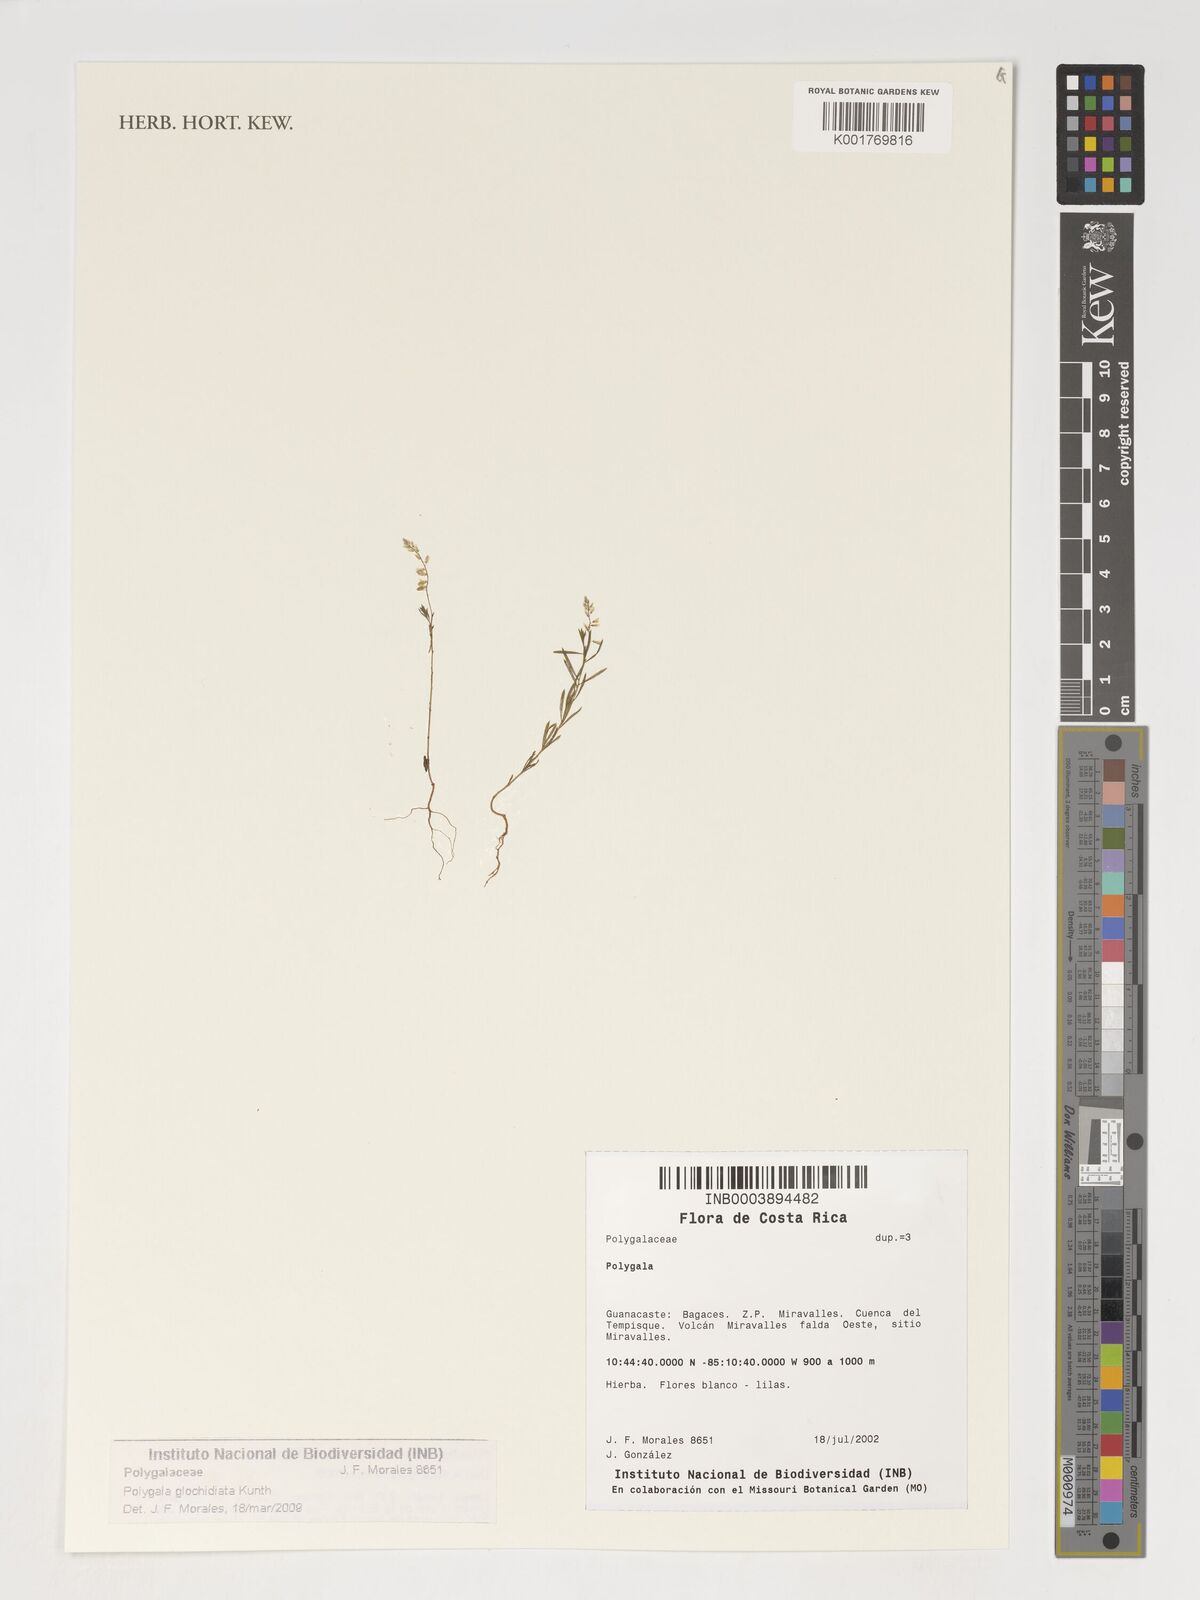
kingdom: Plantae
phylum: Tracheophyta
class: Magnoliopsida
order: Fabales
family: Polygalaceae
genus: Polygala
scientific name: Polygala glochidiata
